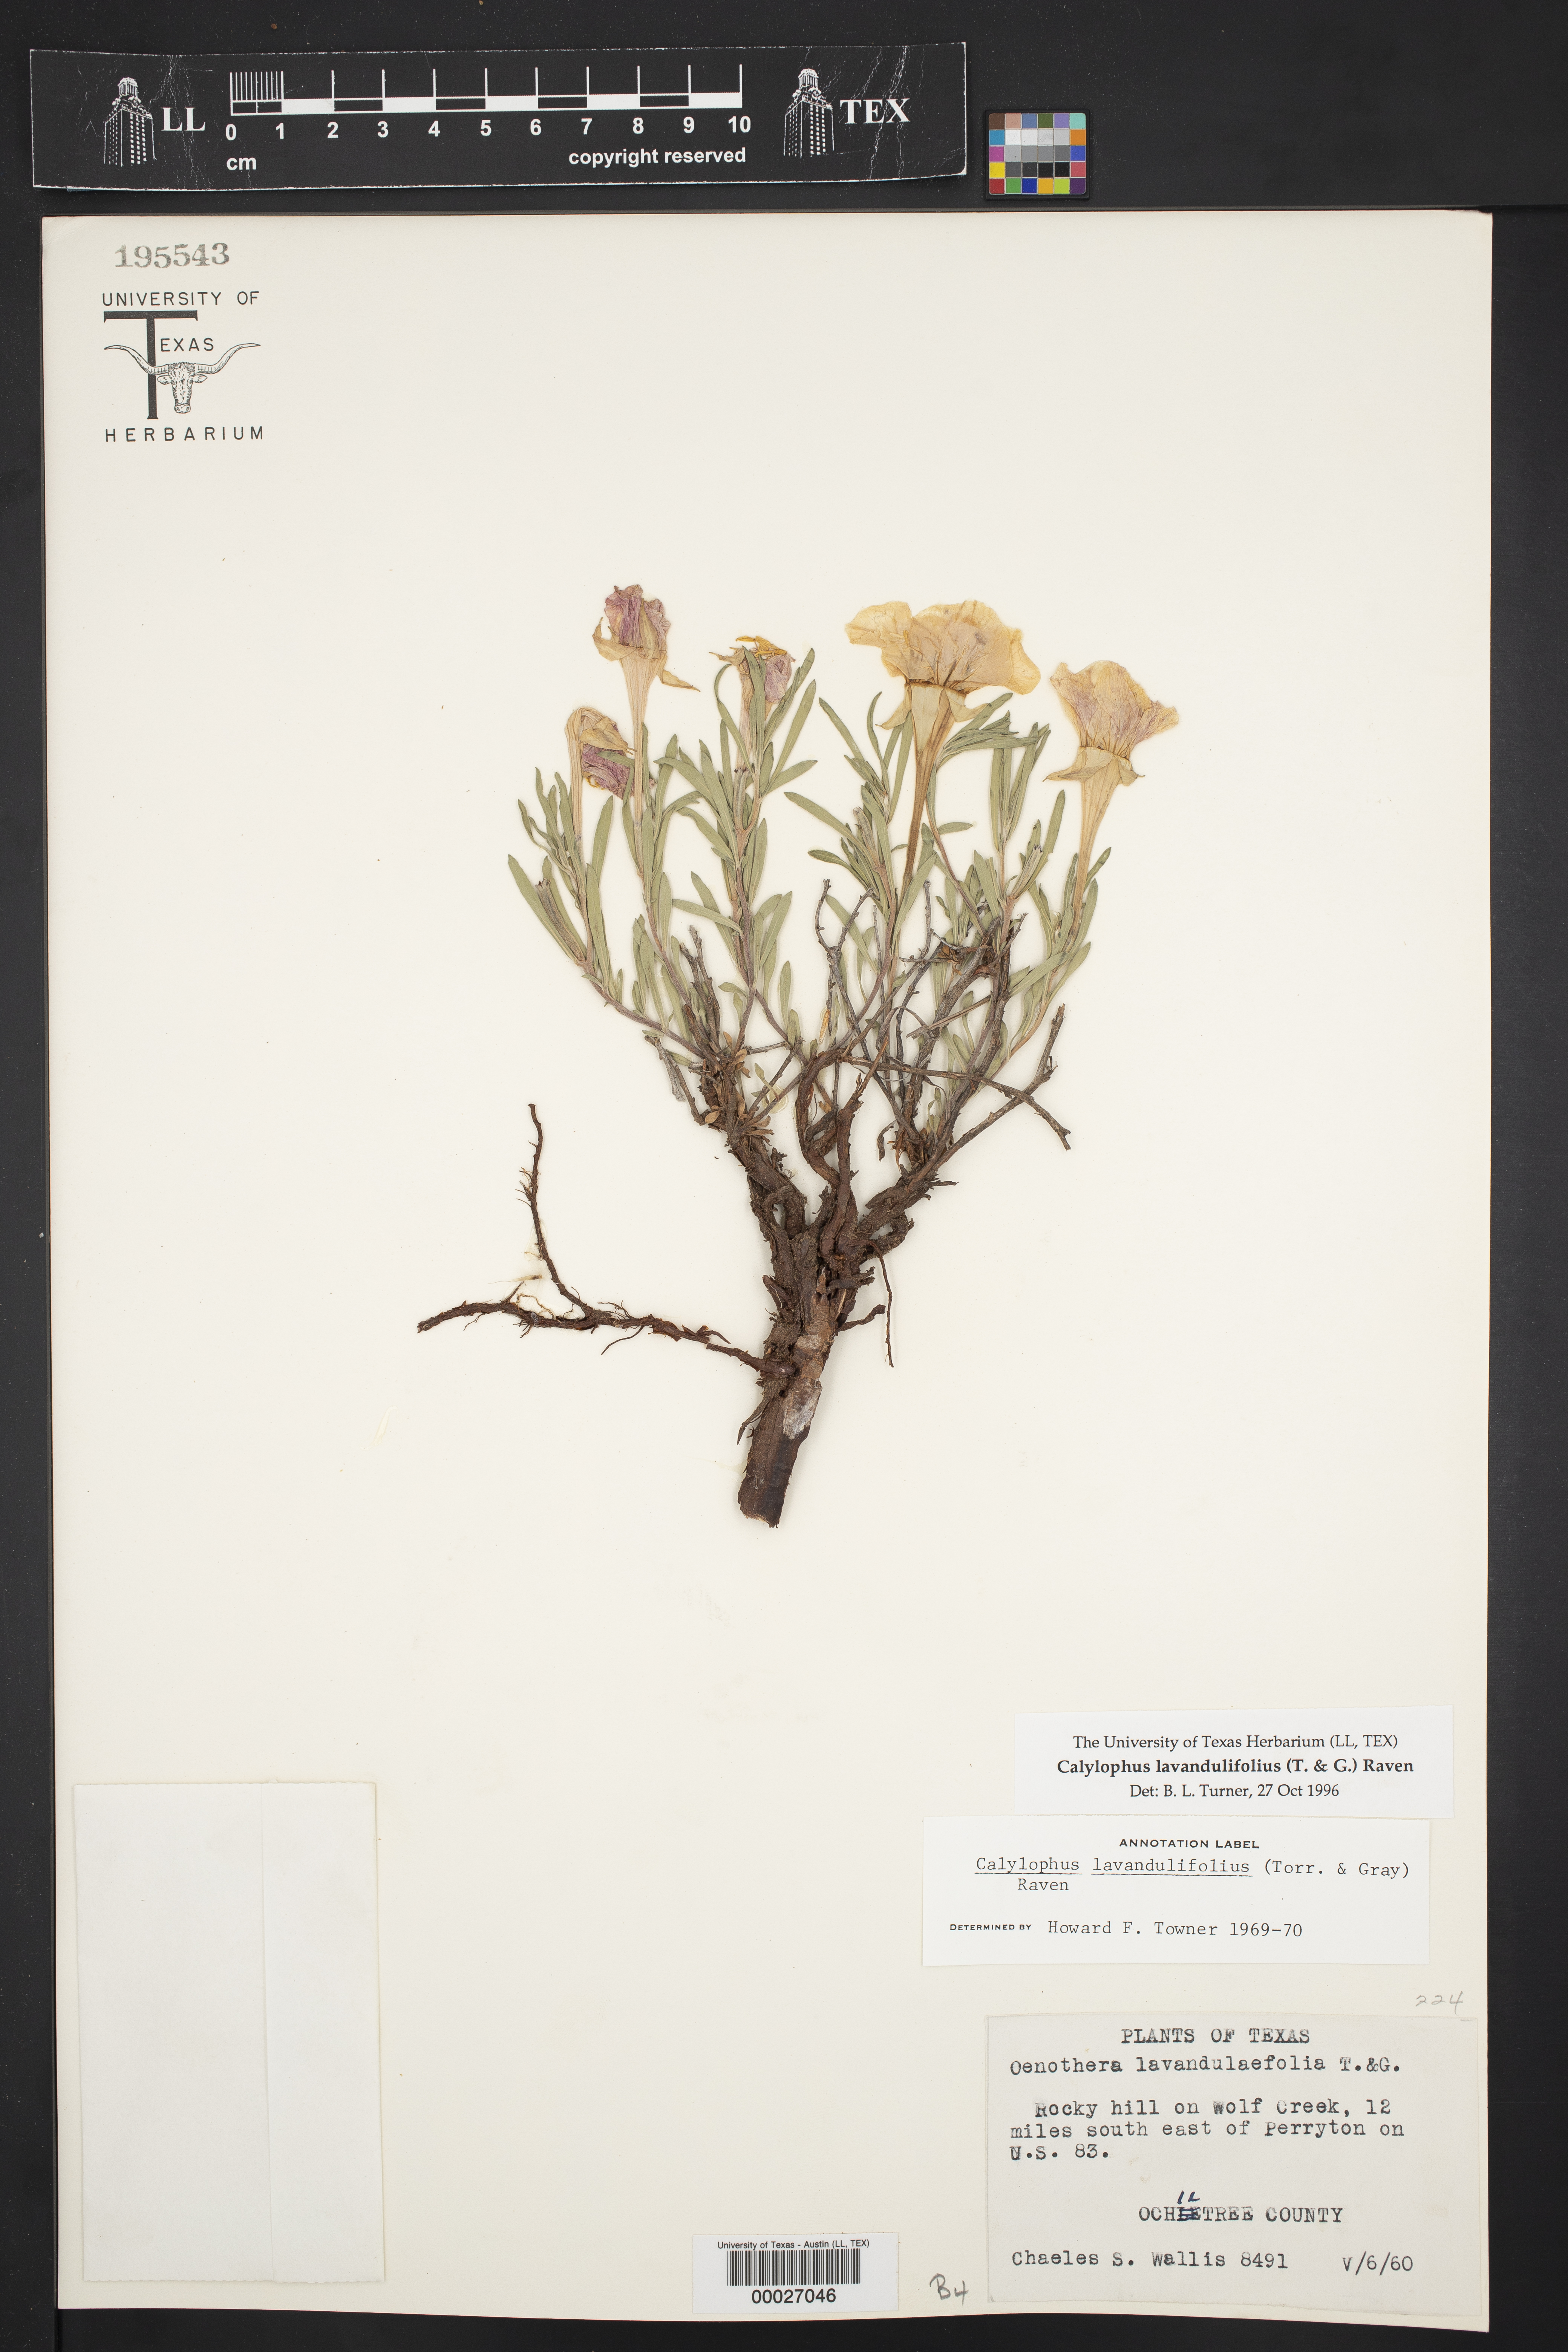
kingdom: Plantae
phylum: Tracheophyta
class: Magnoliopsida
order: Myrtales
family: Onagraceae
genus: Oenothera
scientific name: Oenothera lavandulifolia
